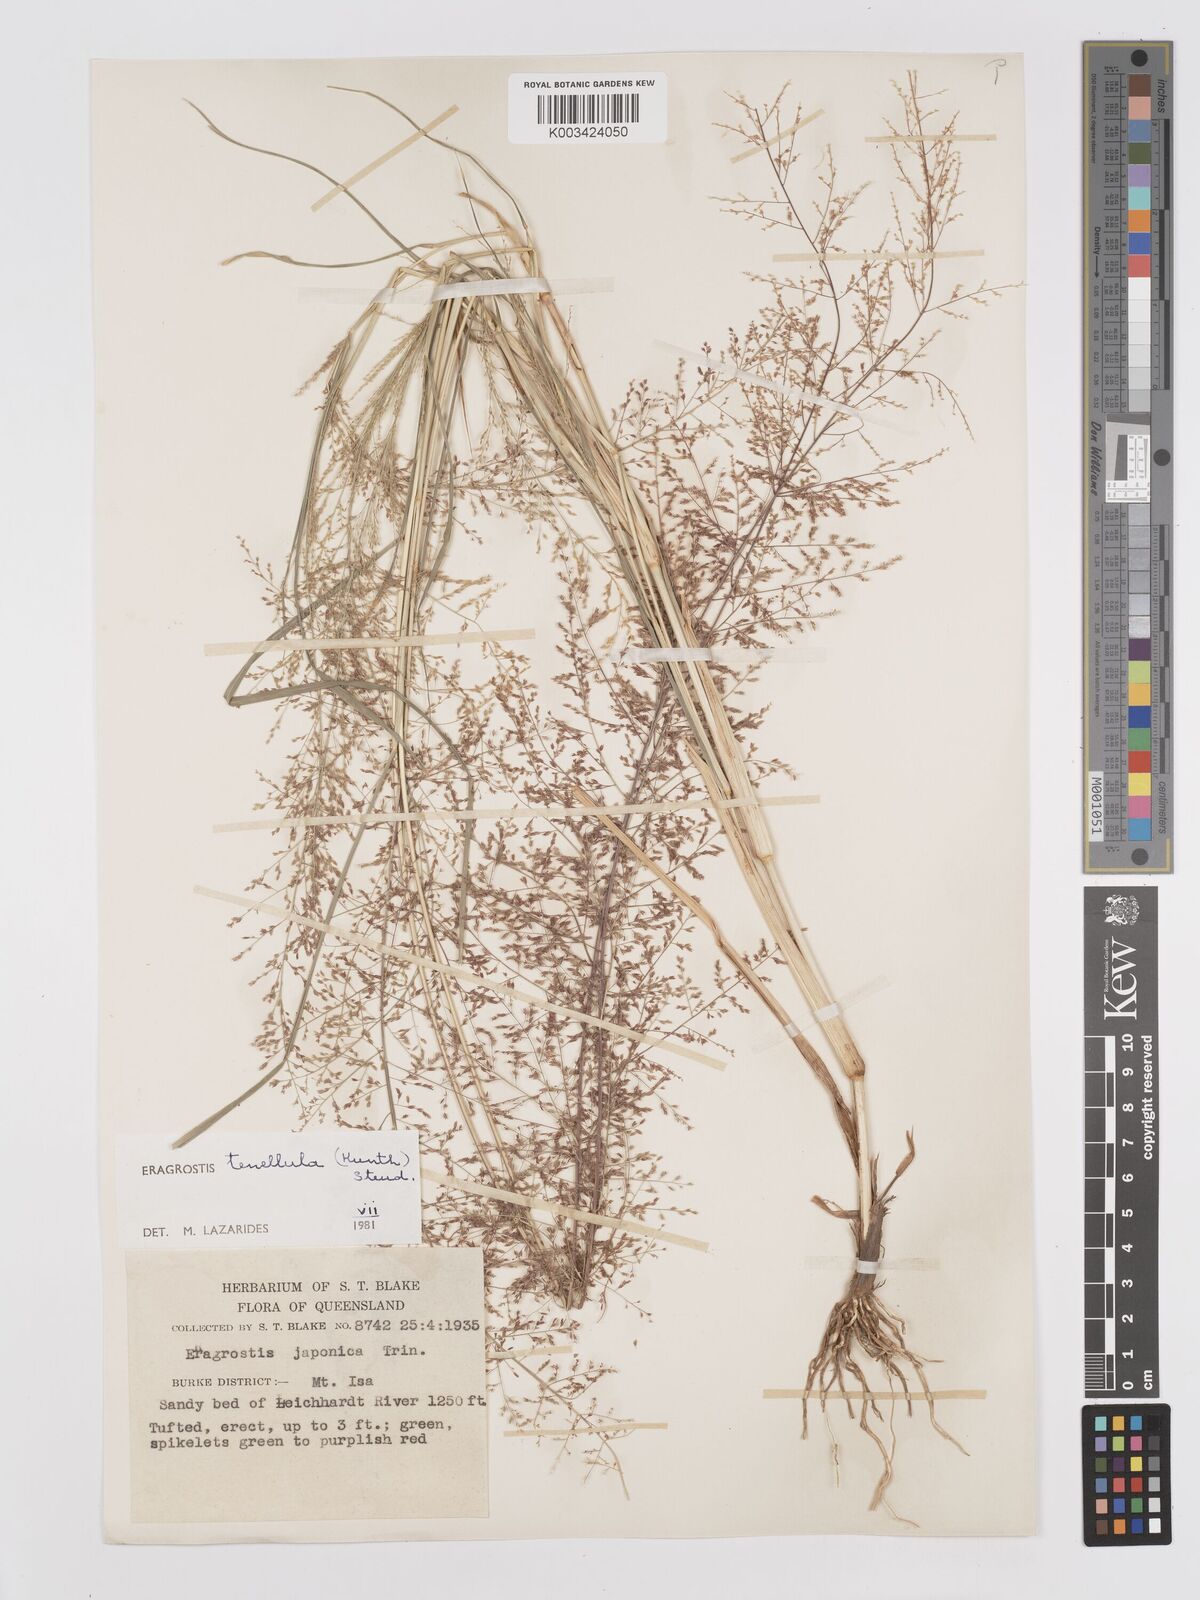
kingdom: Plantae
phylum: Tracheophyta
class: Liliopsida
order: Poales
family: Poaceae
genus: Eragrostis
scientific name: Eragrostis tenellula
